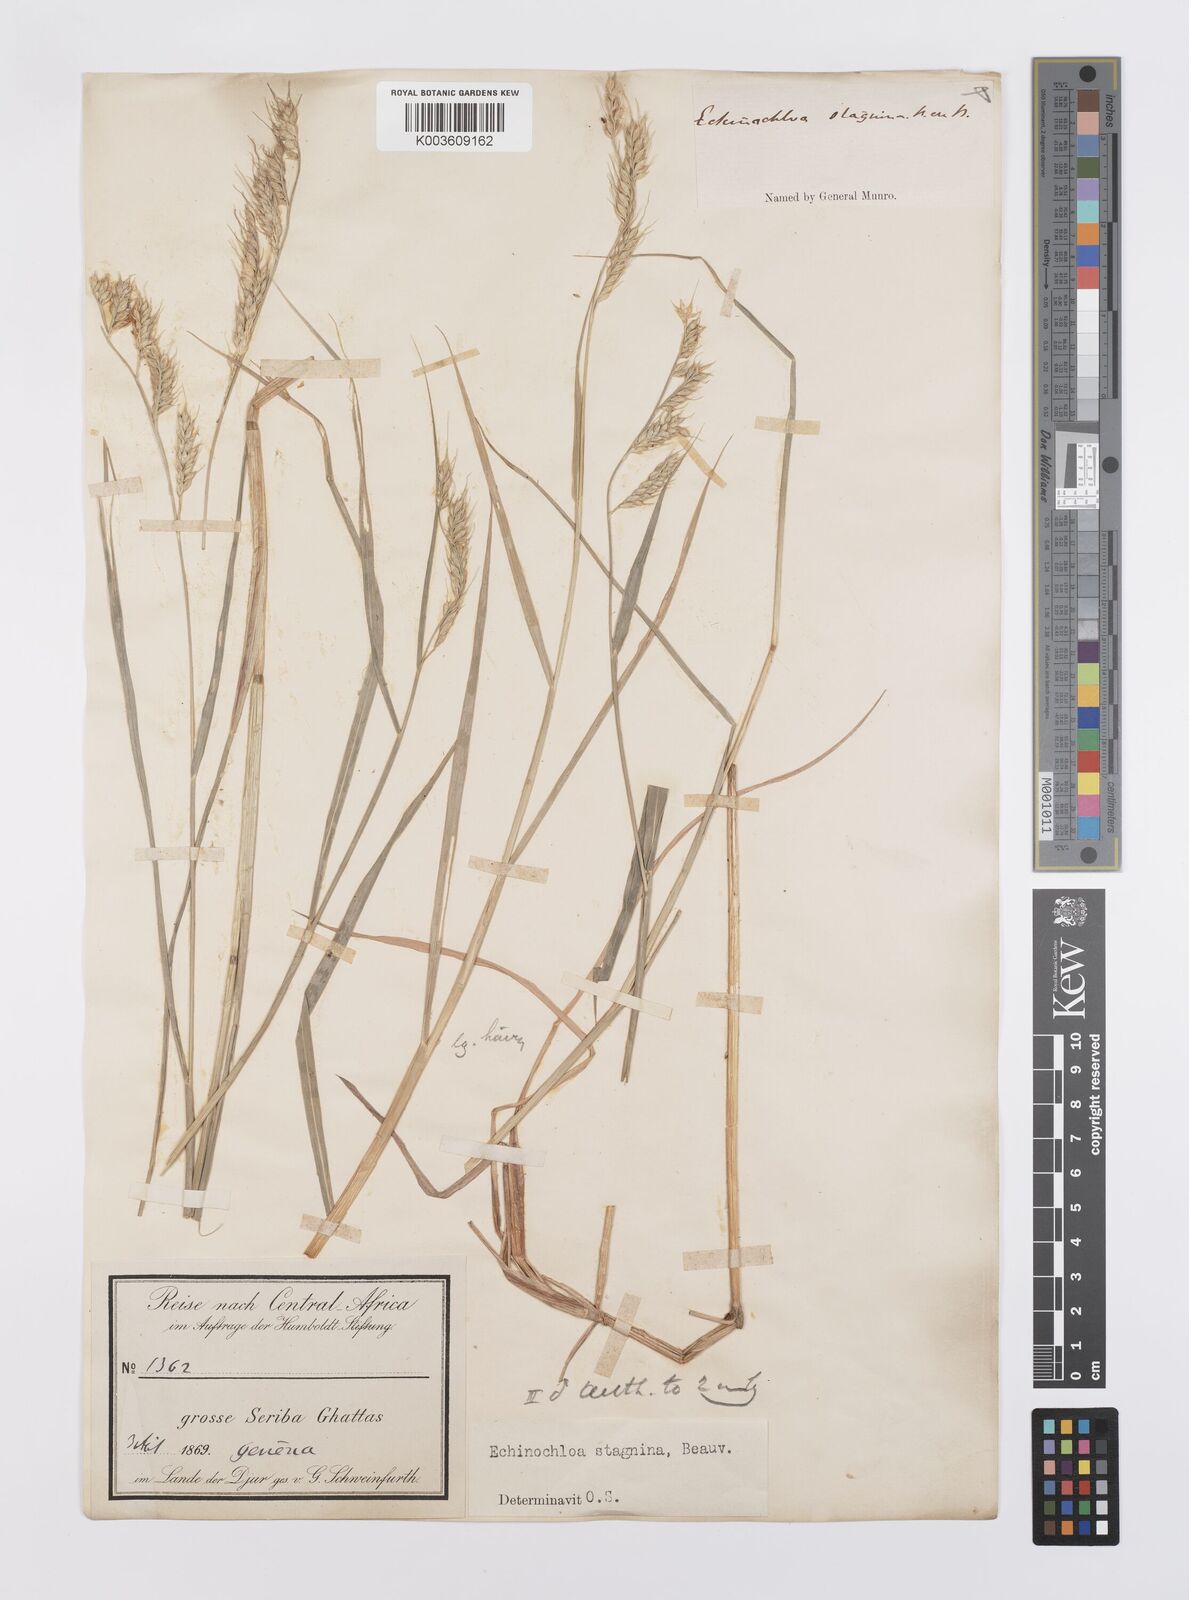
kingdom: Plantae
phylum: Tracheophyta
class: Liliopsida
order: Poales
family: Poaceae
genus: Echinochloa
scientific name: Echinochloa stagnina
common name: Burgu grass
